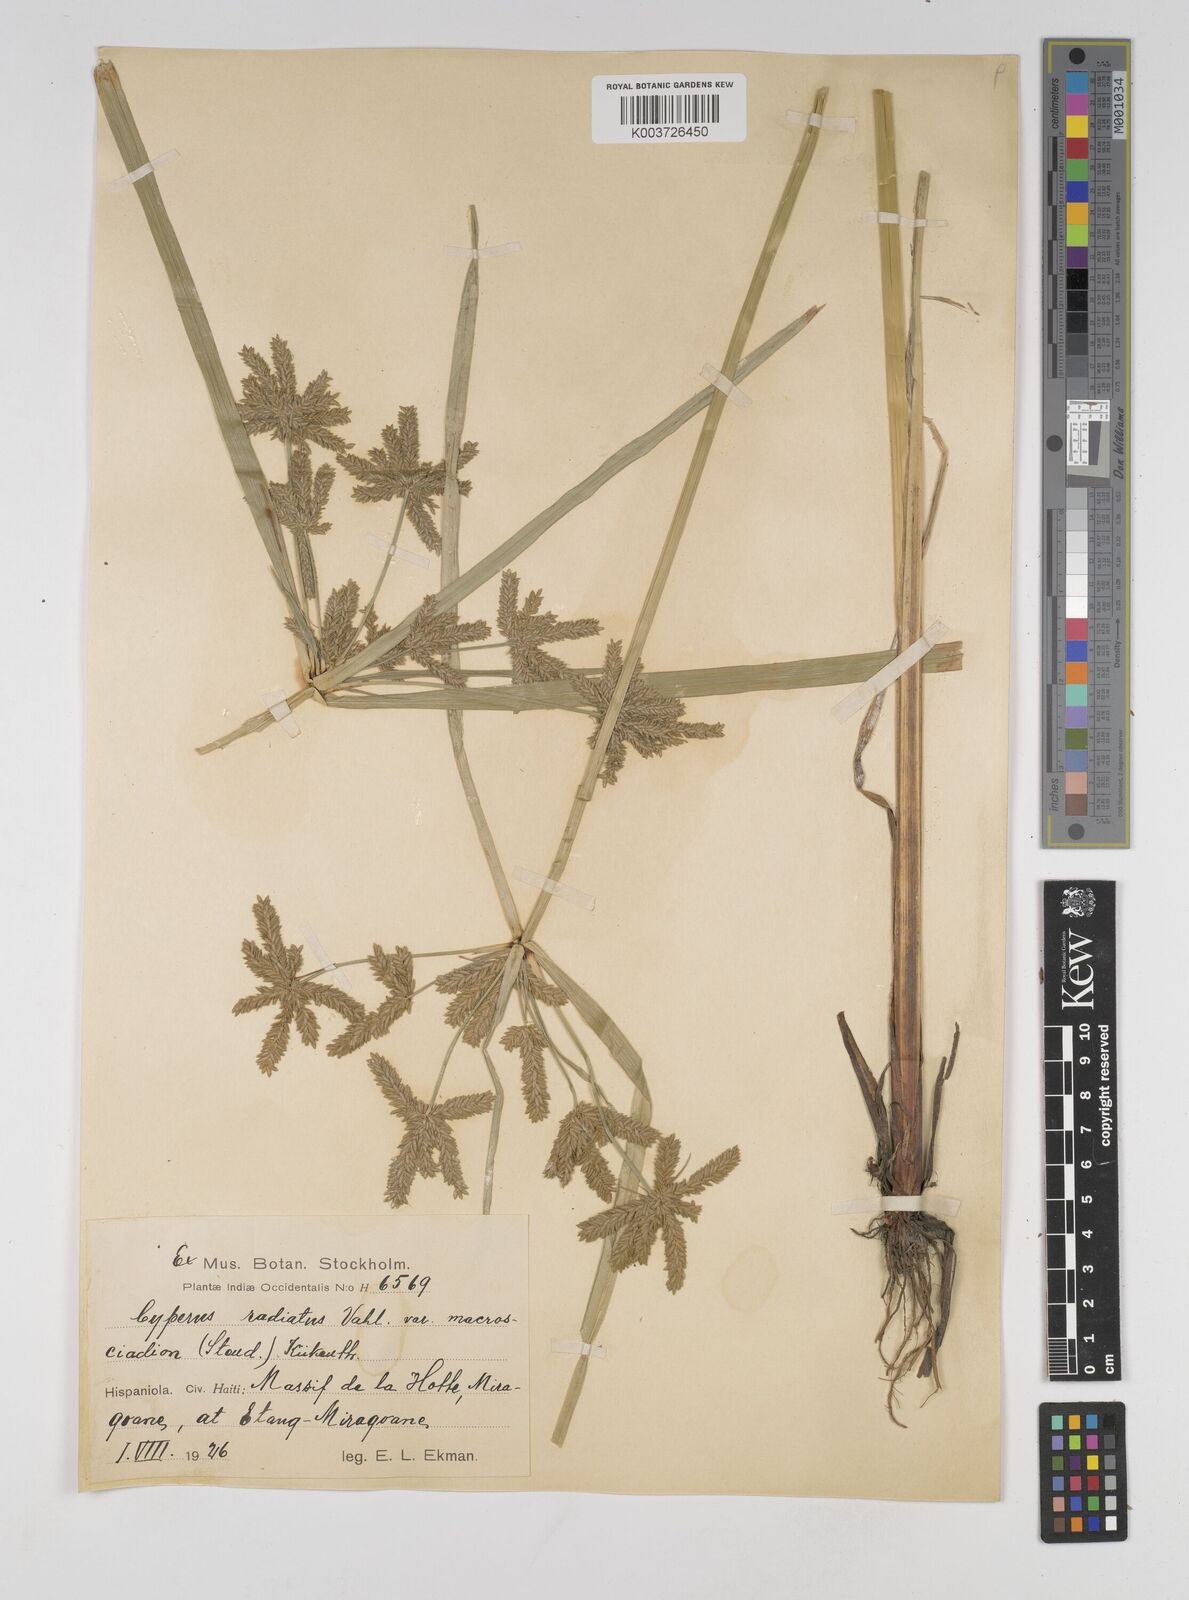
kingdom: Plantae
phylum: Tracheophyta
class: Liliopsida
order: Poales
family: Cyperaceae
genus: Cyperus
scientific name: Cyperus imbricatus
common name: Shingle flatsedge
